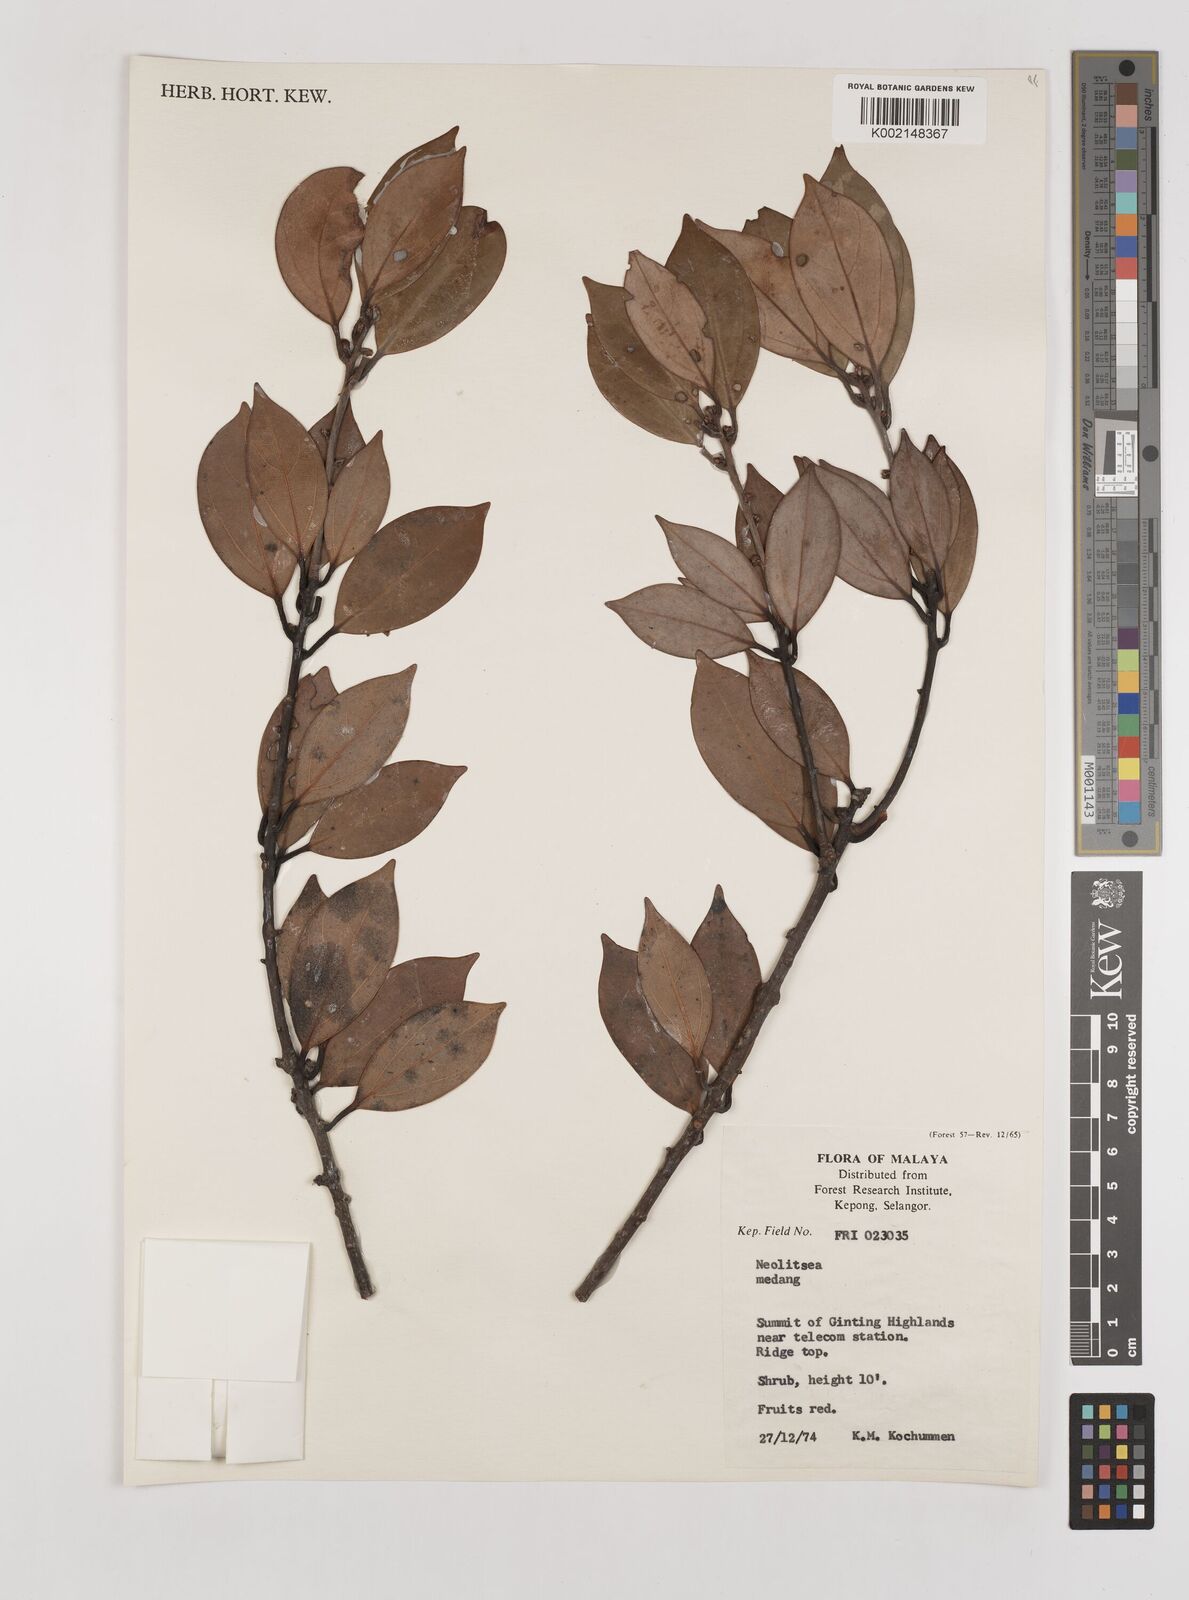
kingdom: Plantae
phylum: Tracheophyta
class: Magnoliopsida
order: Laurales
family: Lauraceae
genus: Neolitsea
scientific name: Neolitsea
